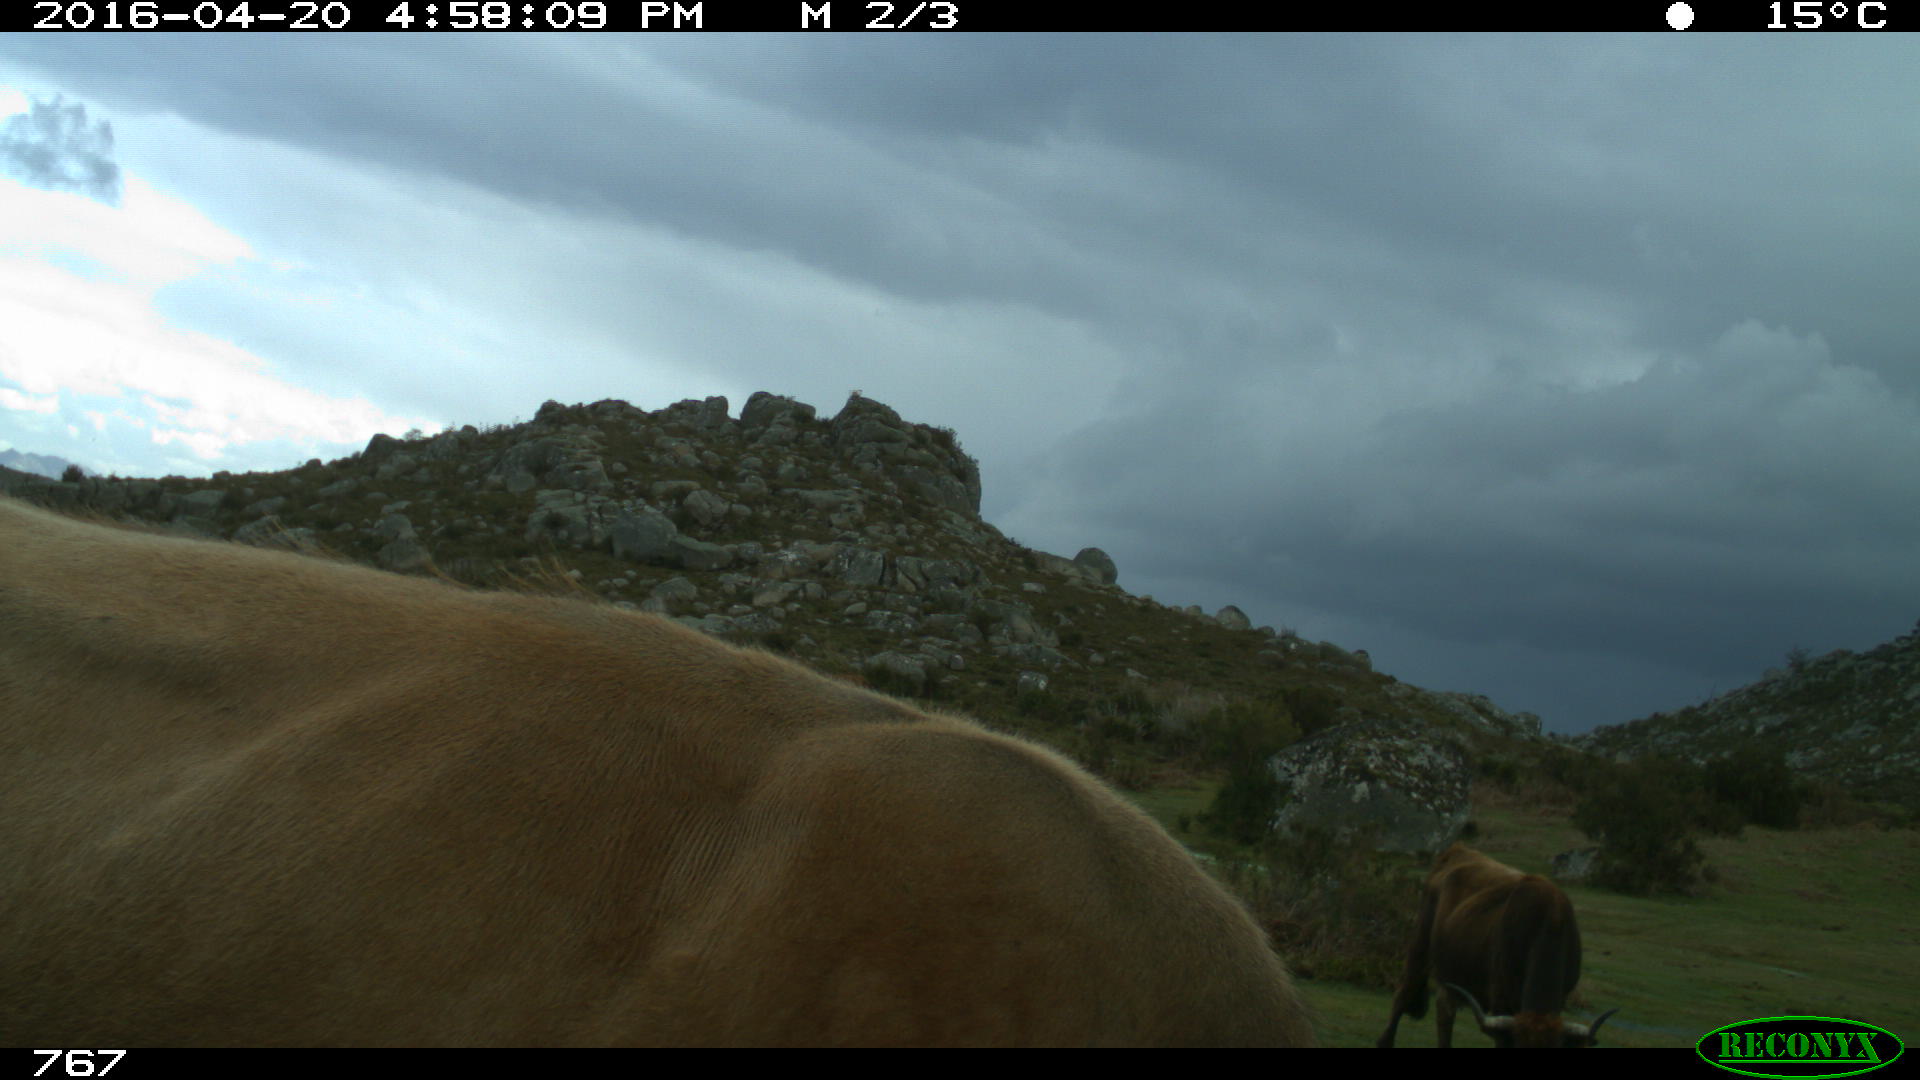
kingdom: Animalia
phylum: Chordata
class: Mammalia
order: Artiodactyla
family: Bovidae
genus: Bos
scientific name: Bos taurus
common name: Domesticated cattle
